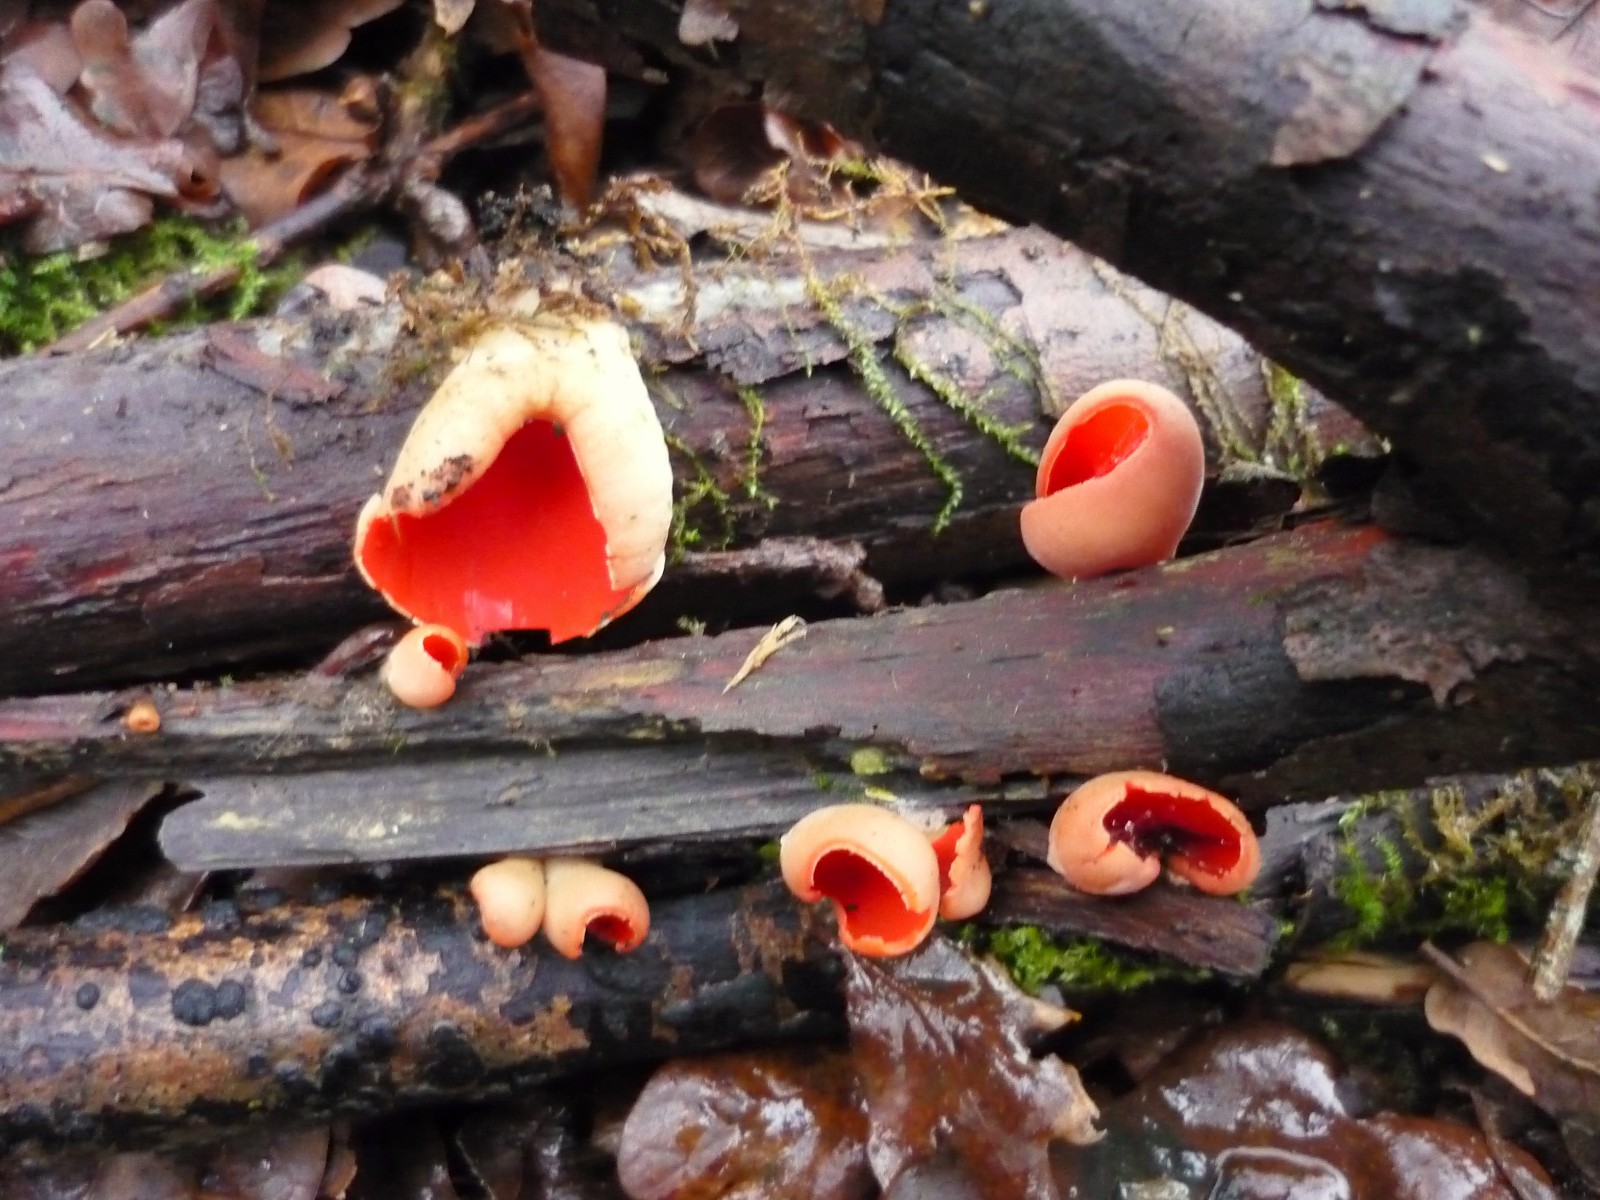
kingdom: Fungi
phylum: Ascomycota
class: Pezizomycetes
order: Pezizales
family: Sarcoscyphaceae
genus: Sarcoscypha
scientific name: Sarcoscypha austriaca
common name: krølhåret pragtbæger
